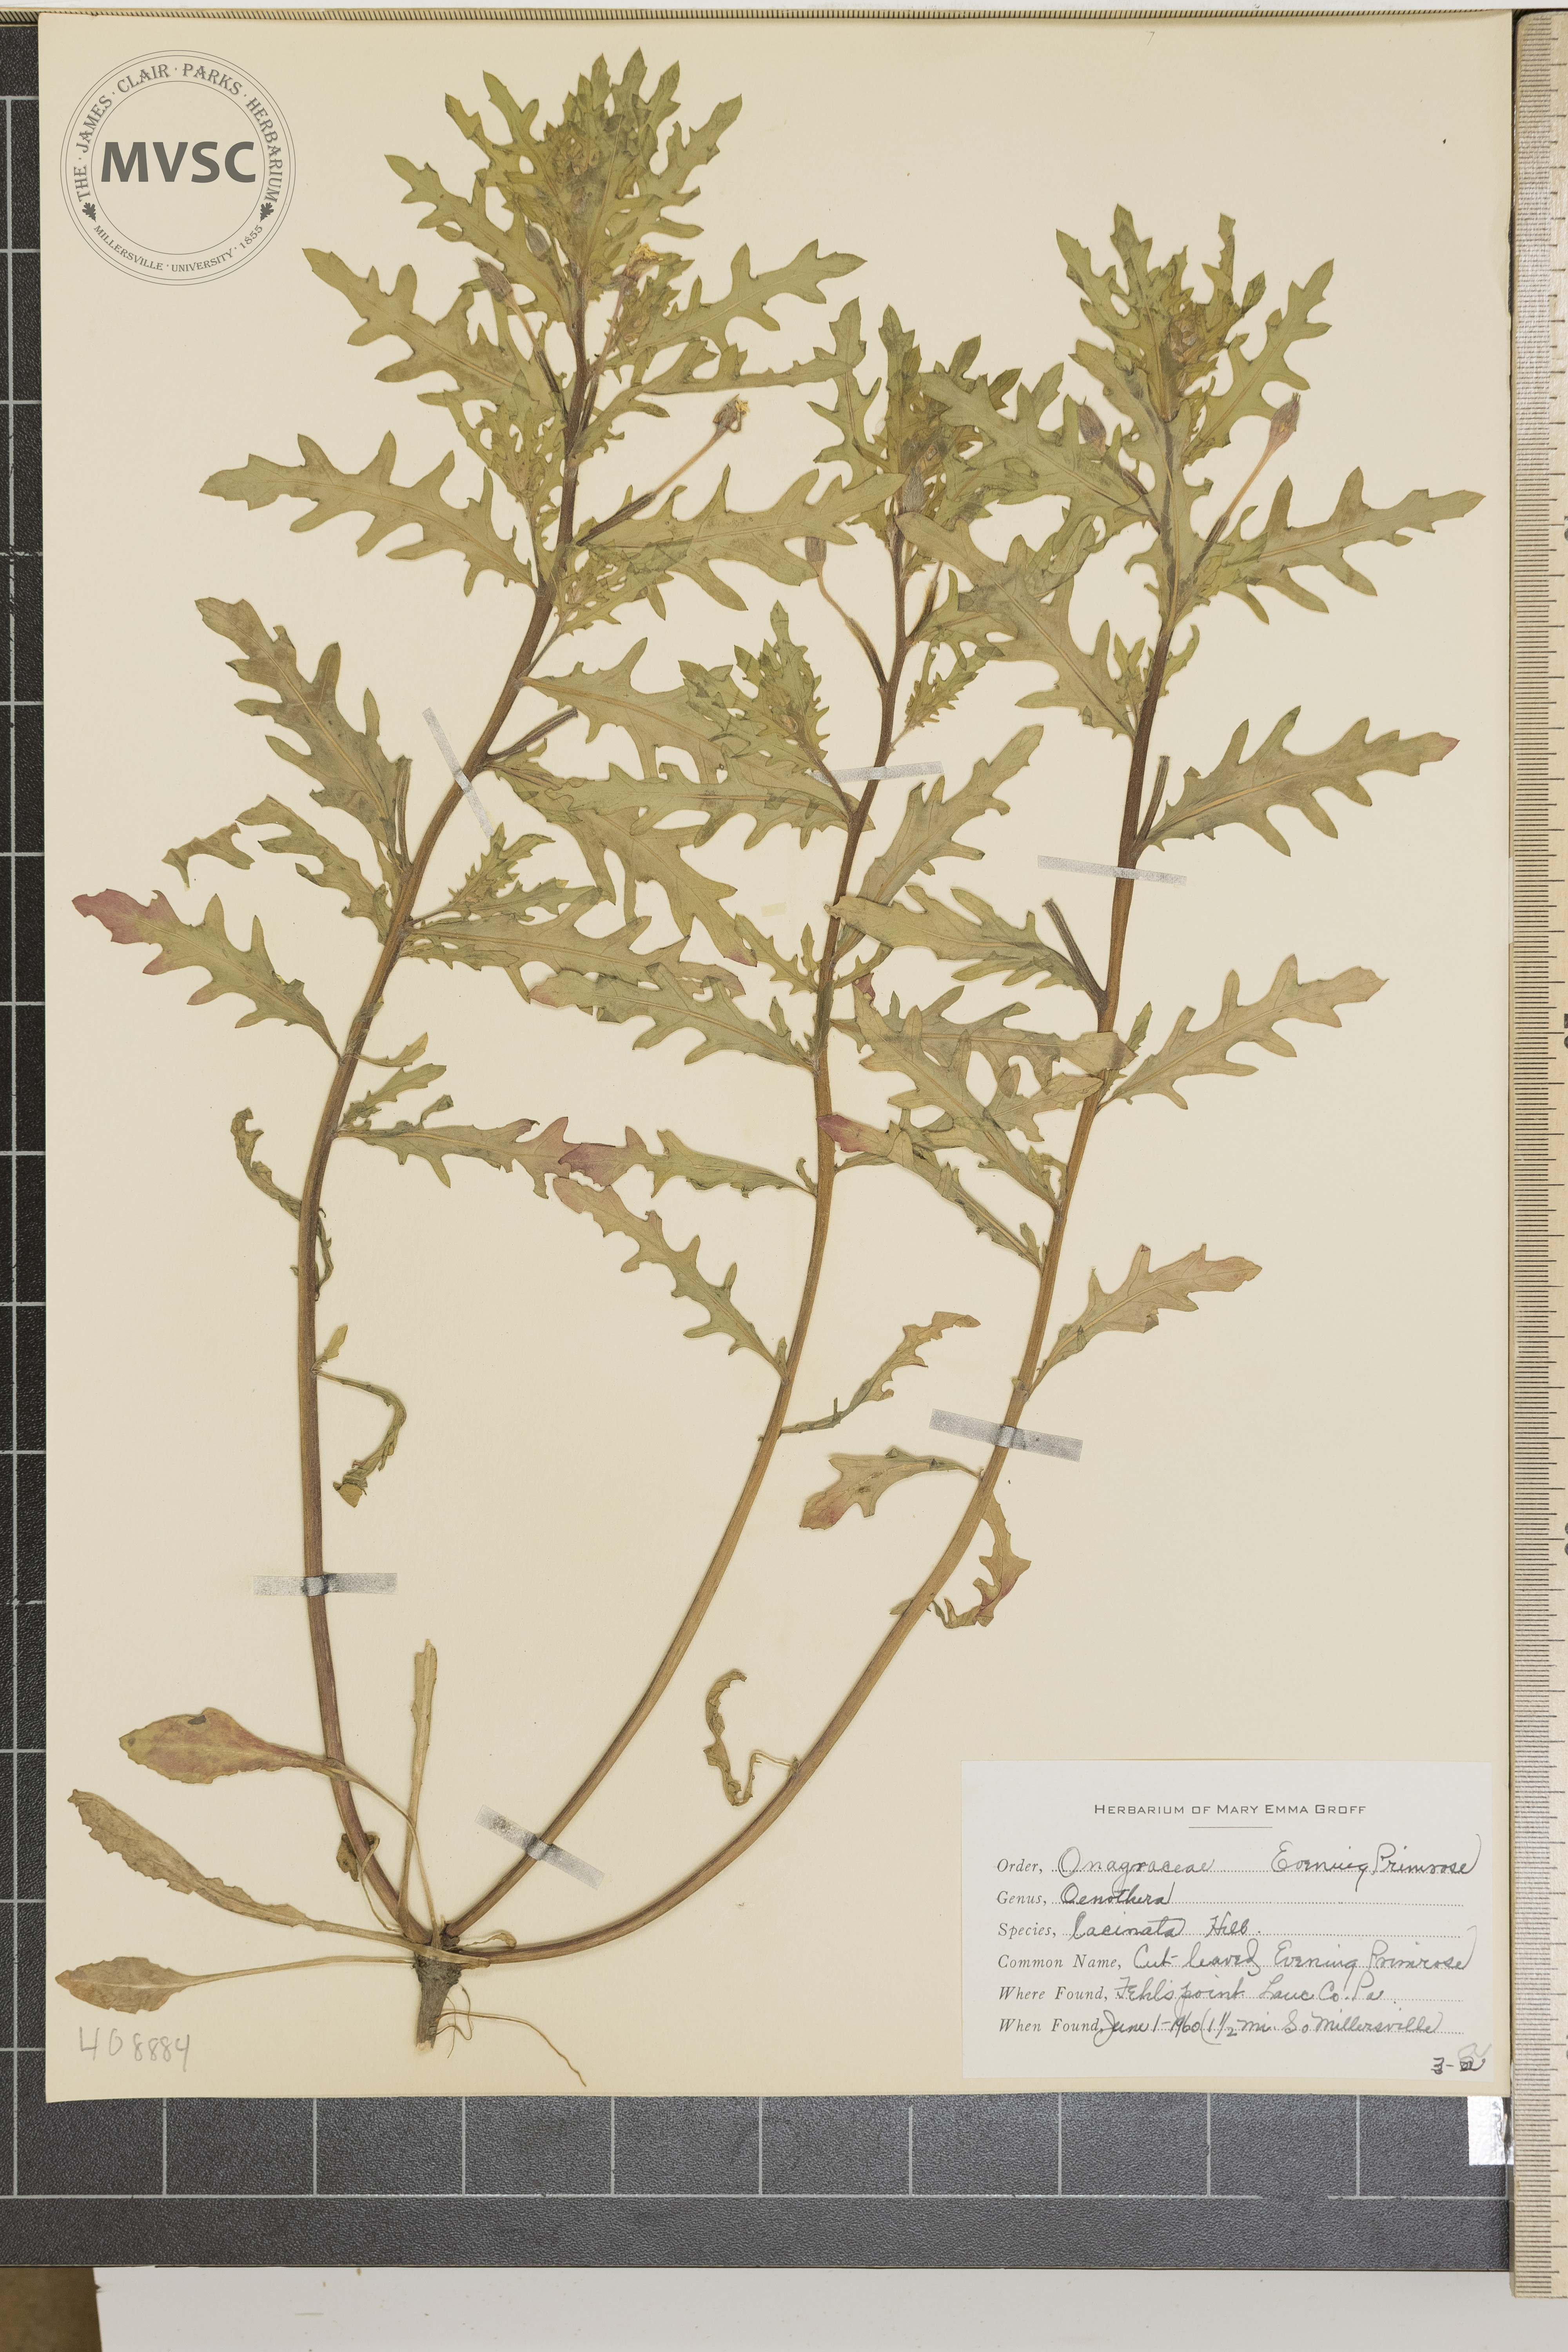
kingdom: Plantae
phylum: Tracheophyta
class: Magnoliopsida
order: Myrtales
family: Onagraceae
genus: Oenothera
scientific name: Oenothera laciniata
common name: cut-leaved evening-primrose
